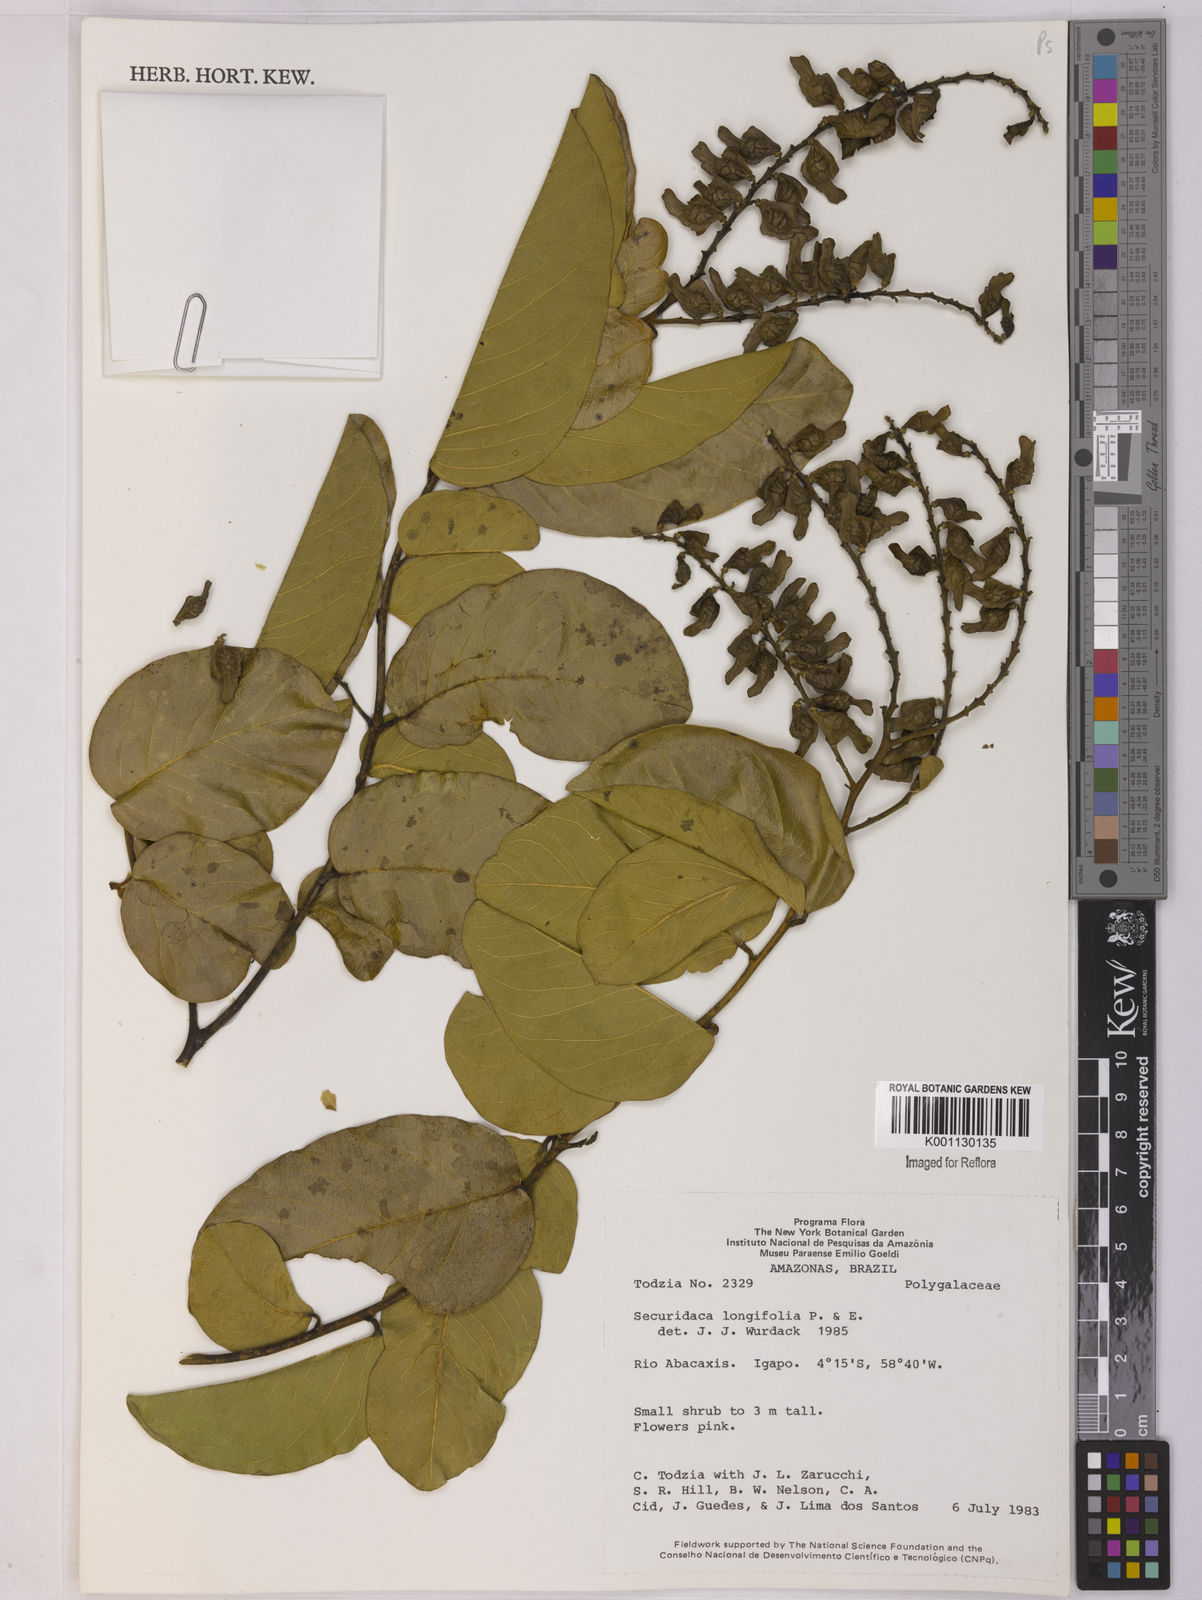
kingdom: Plantae
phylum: Tracheophyta
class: Magnoliopsida
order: Fabales
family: Polygalaceae
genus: Securidaca
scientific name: Securidaca longifolia
